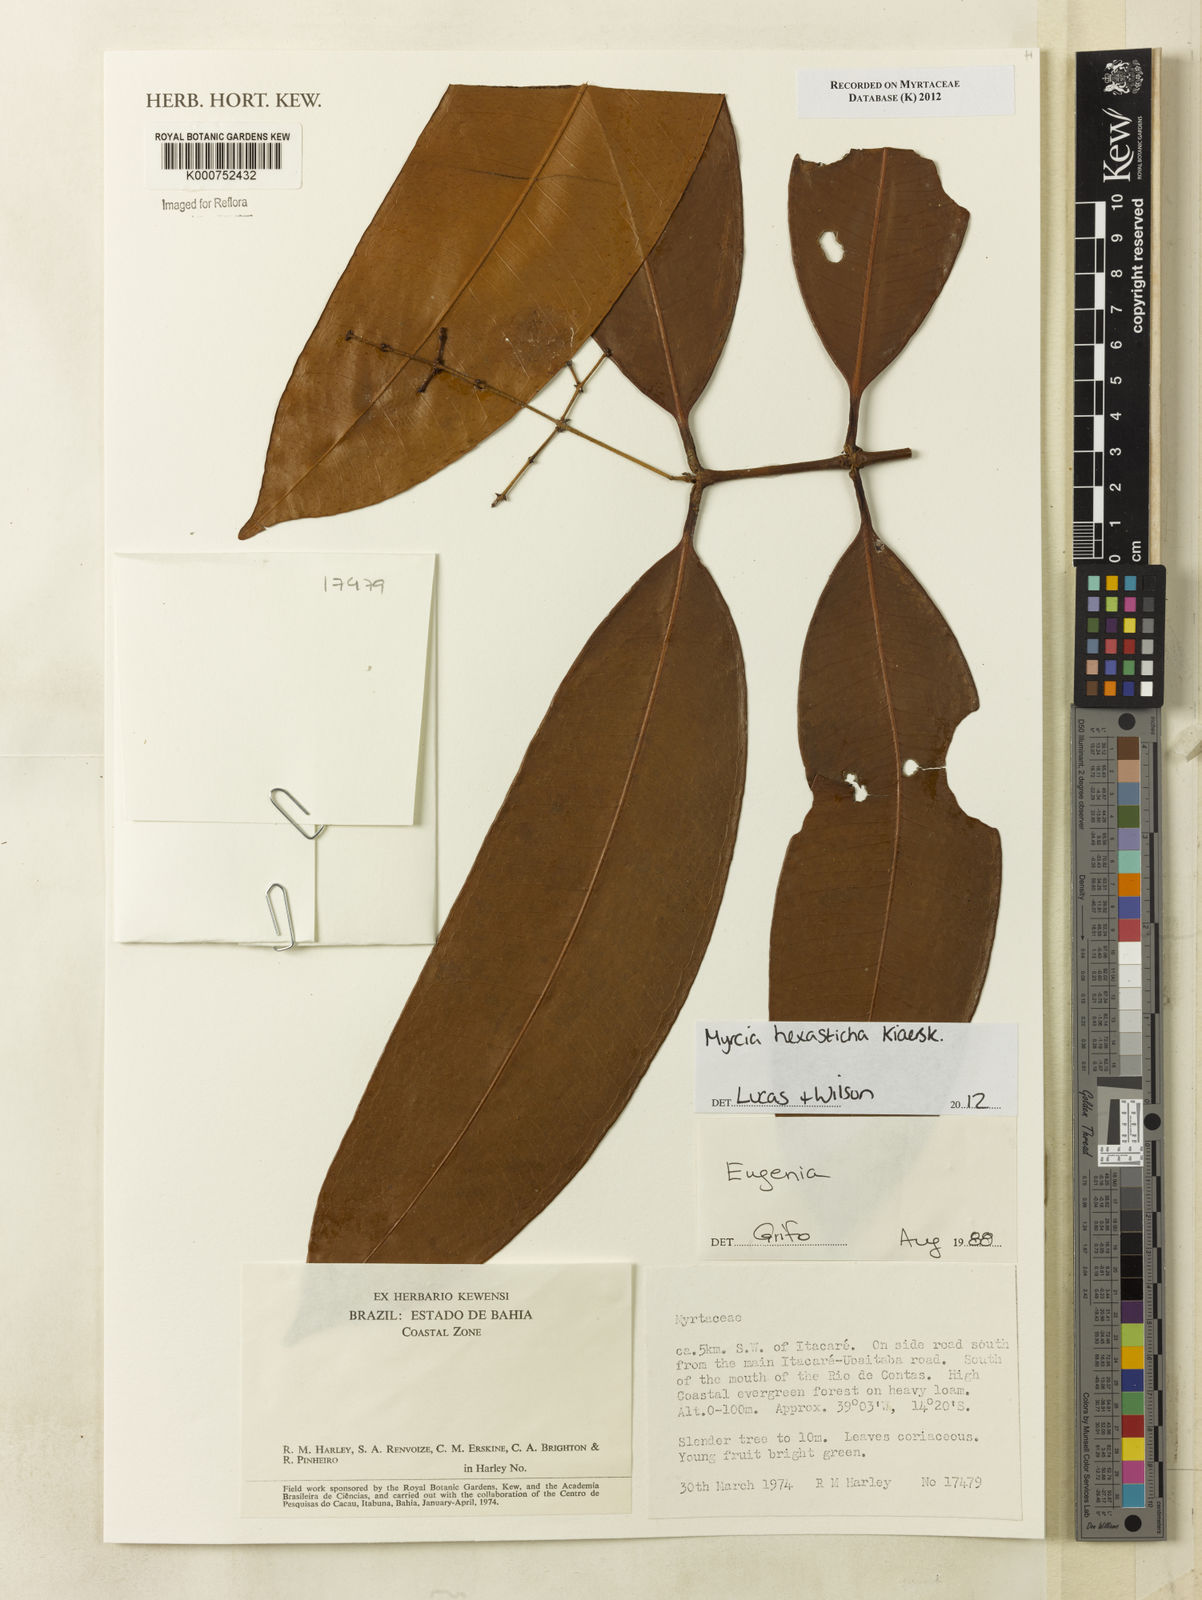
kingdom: Plantae
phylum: Tracheophyta
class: Magnoliopsida
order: Myrtales
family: Myrtaceae
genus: Myrcia
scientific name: Myrcia hexasticha
